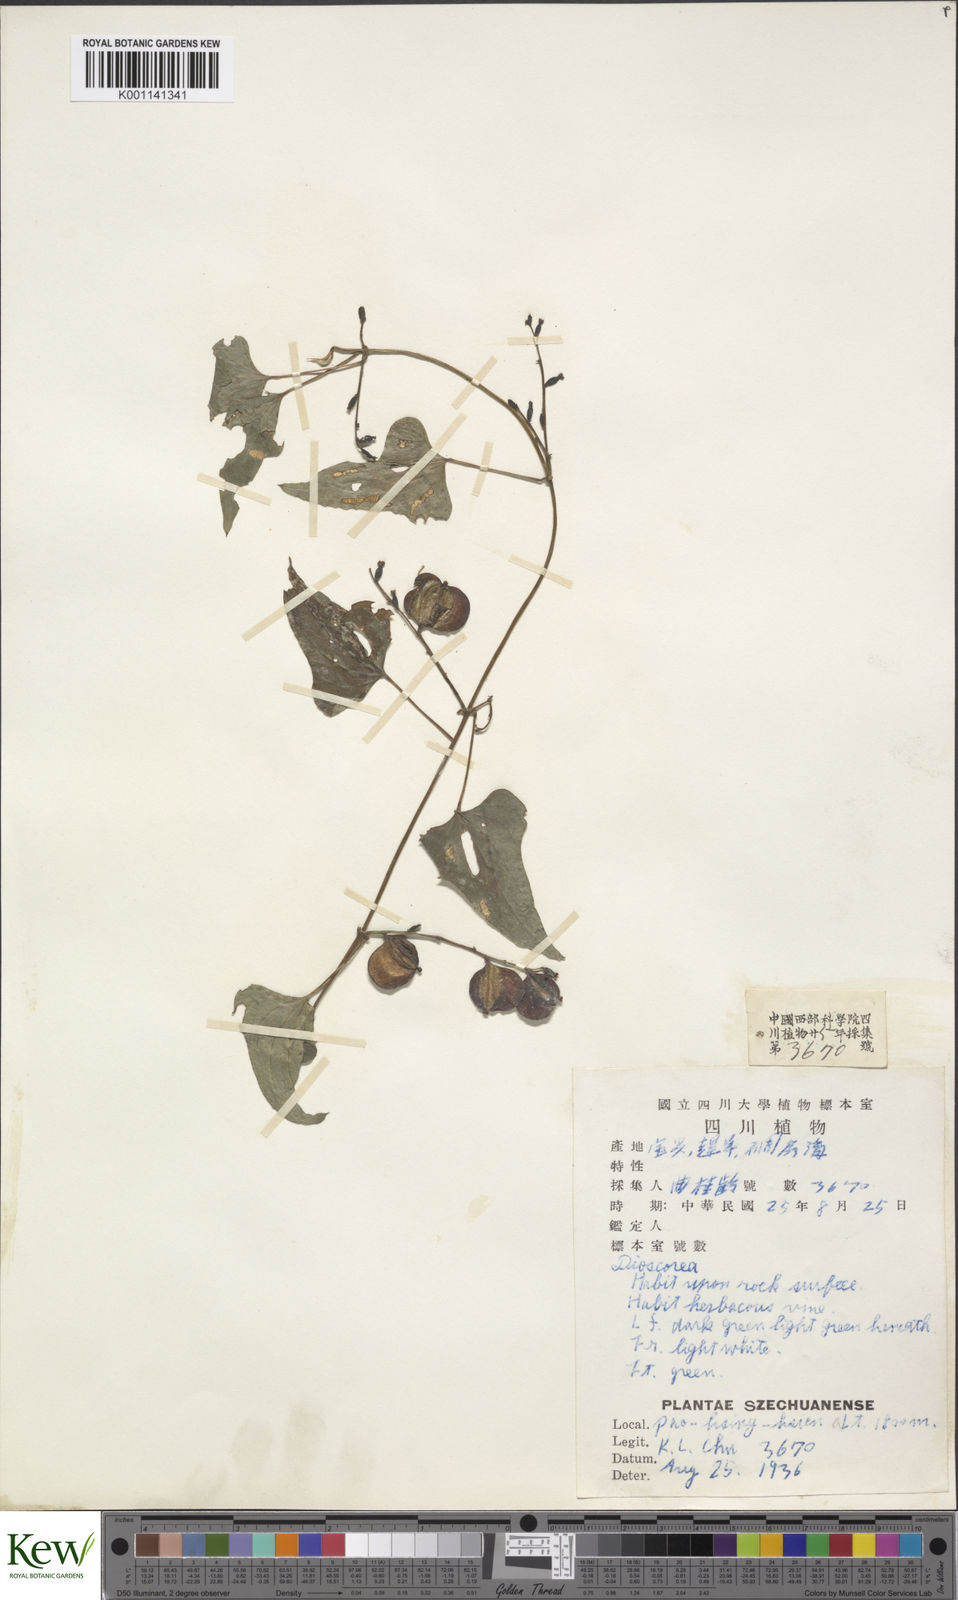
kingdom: Plantae
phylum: Tracheophyta
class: Liliopsida
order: Dioscoreales
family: Dioscoreaceae
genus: Dioscorea
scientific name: Dioscorea collettii
